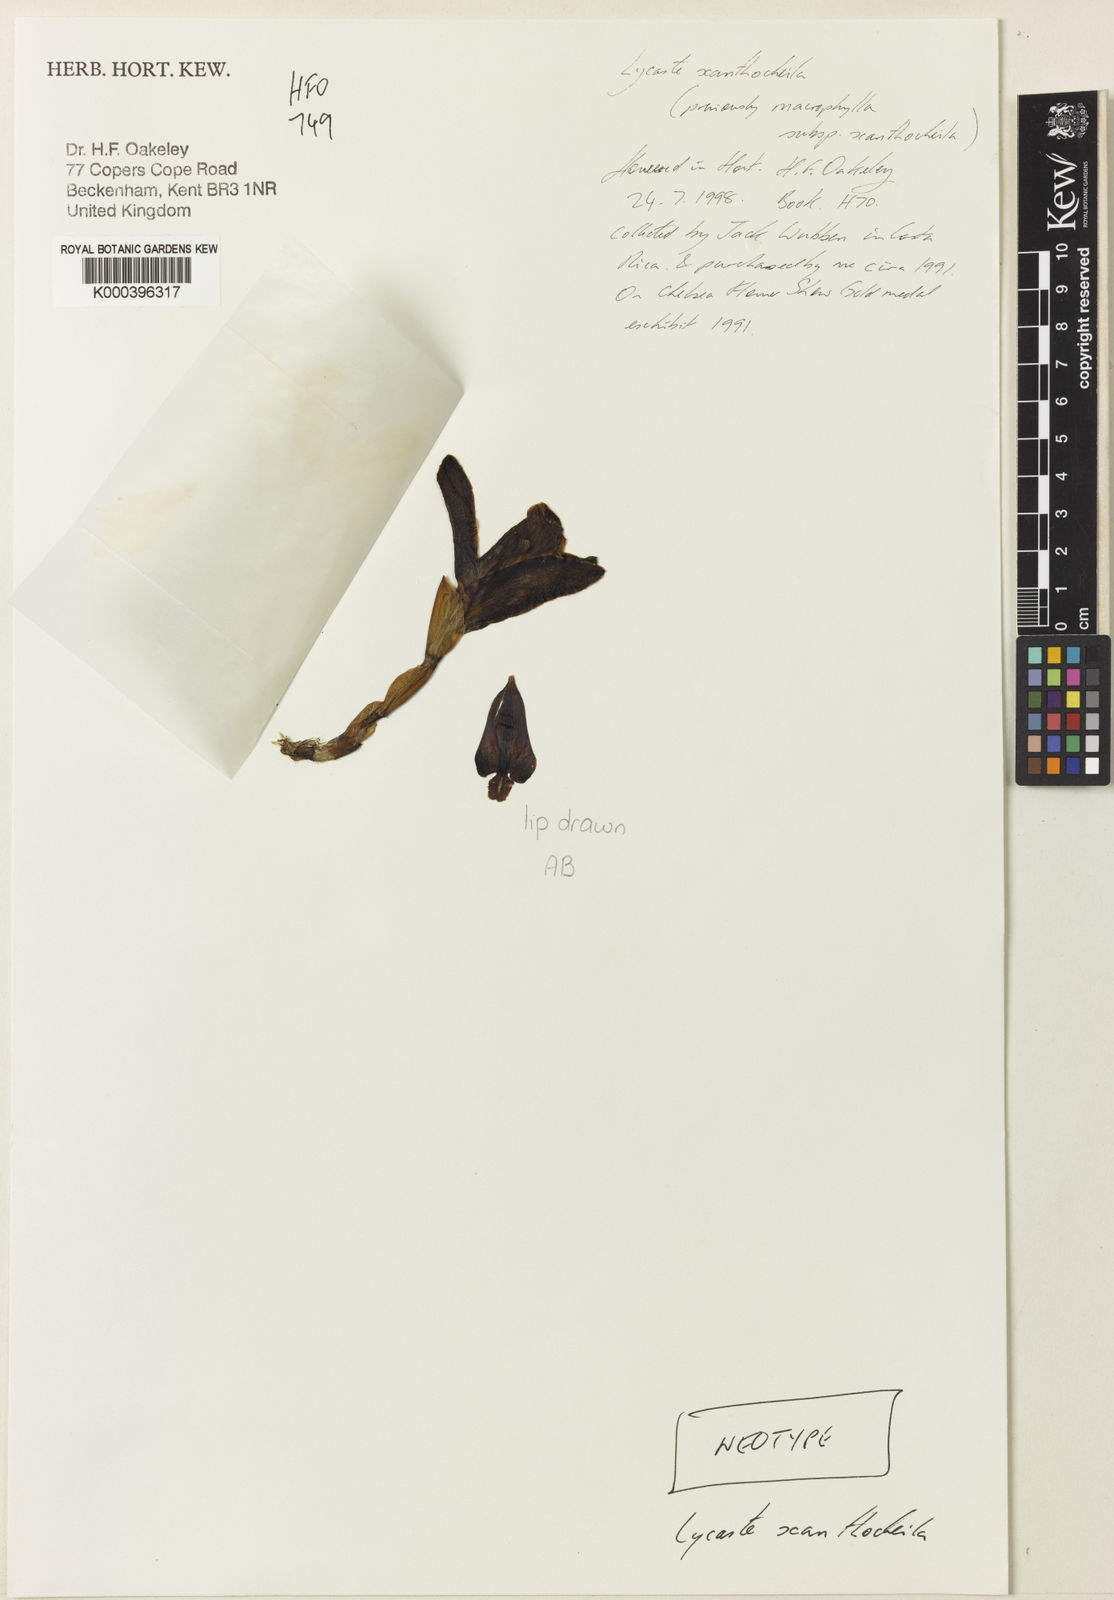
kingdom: Plantae
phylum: Tracheophyta
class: Liliopsida
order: Asparagales
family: Orchidaceae
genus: Lycaste
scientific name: Lycaste xanthocheila
